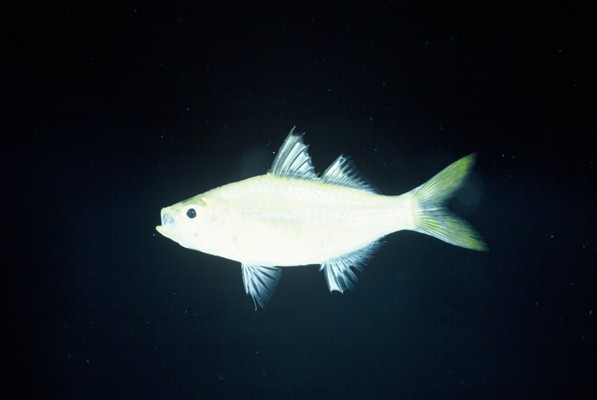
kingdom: Animalia
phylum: Chordata
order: Perciformes
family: Ambassidae
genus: Ambassis
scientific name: Ambassis natalensis
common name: Slender glassy
